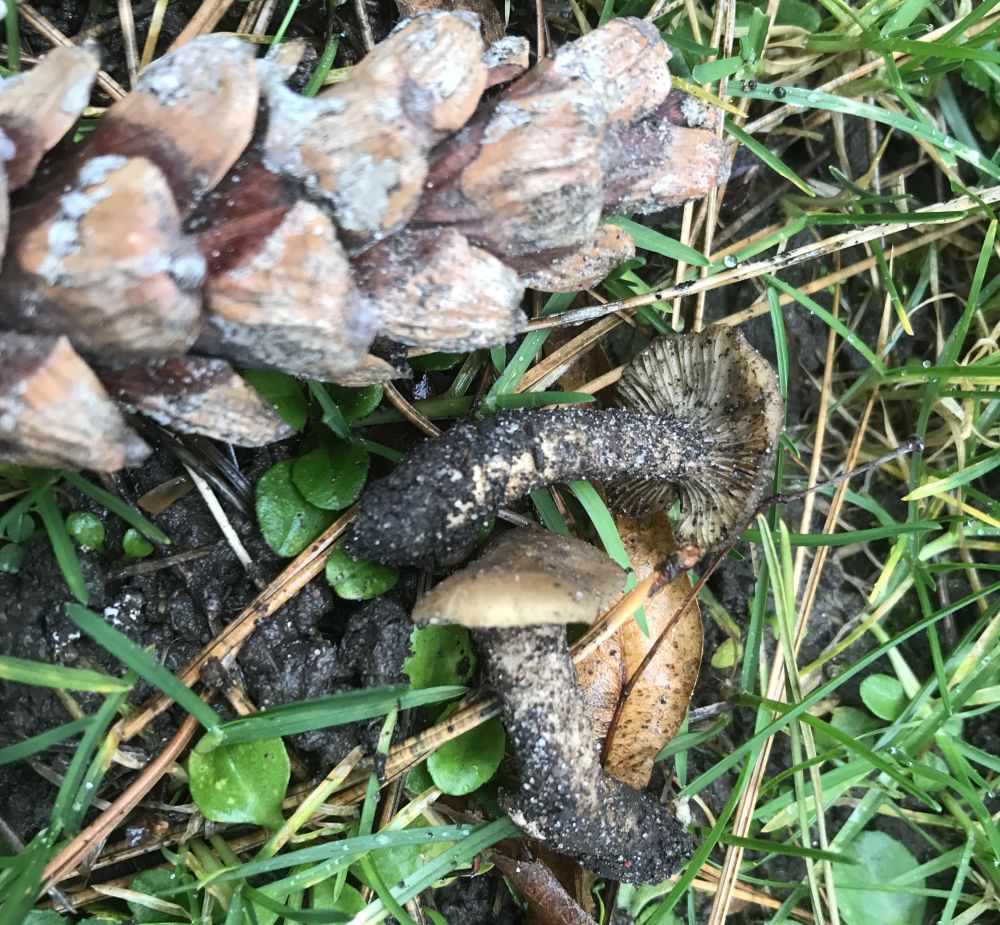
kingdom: Fungi
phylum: Basidiomycota
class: Agaricomycetes
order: Agaricales
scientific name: Agaricales
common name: champignonordenen
